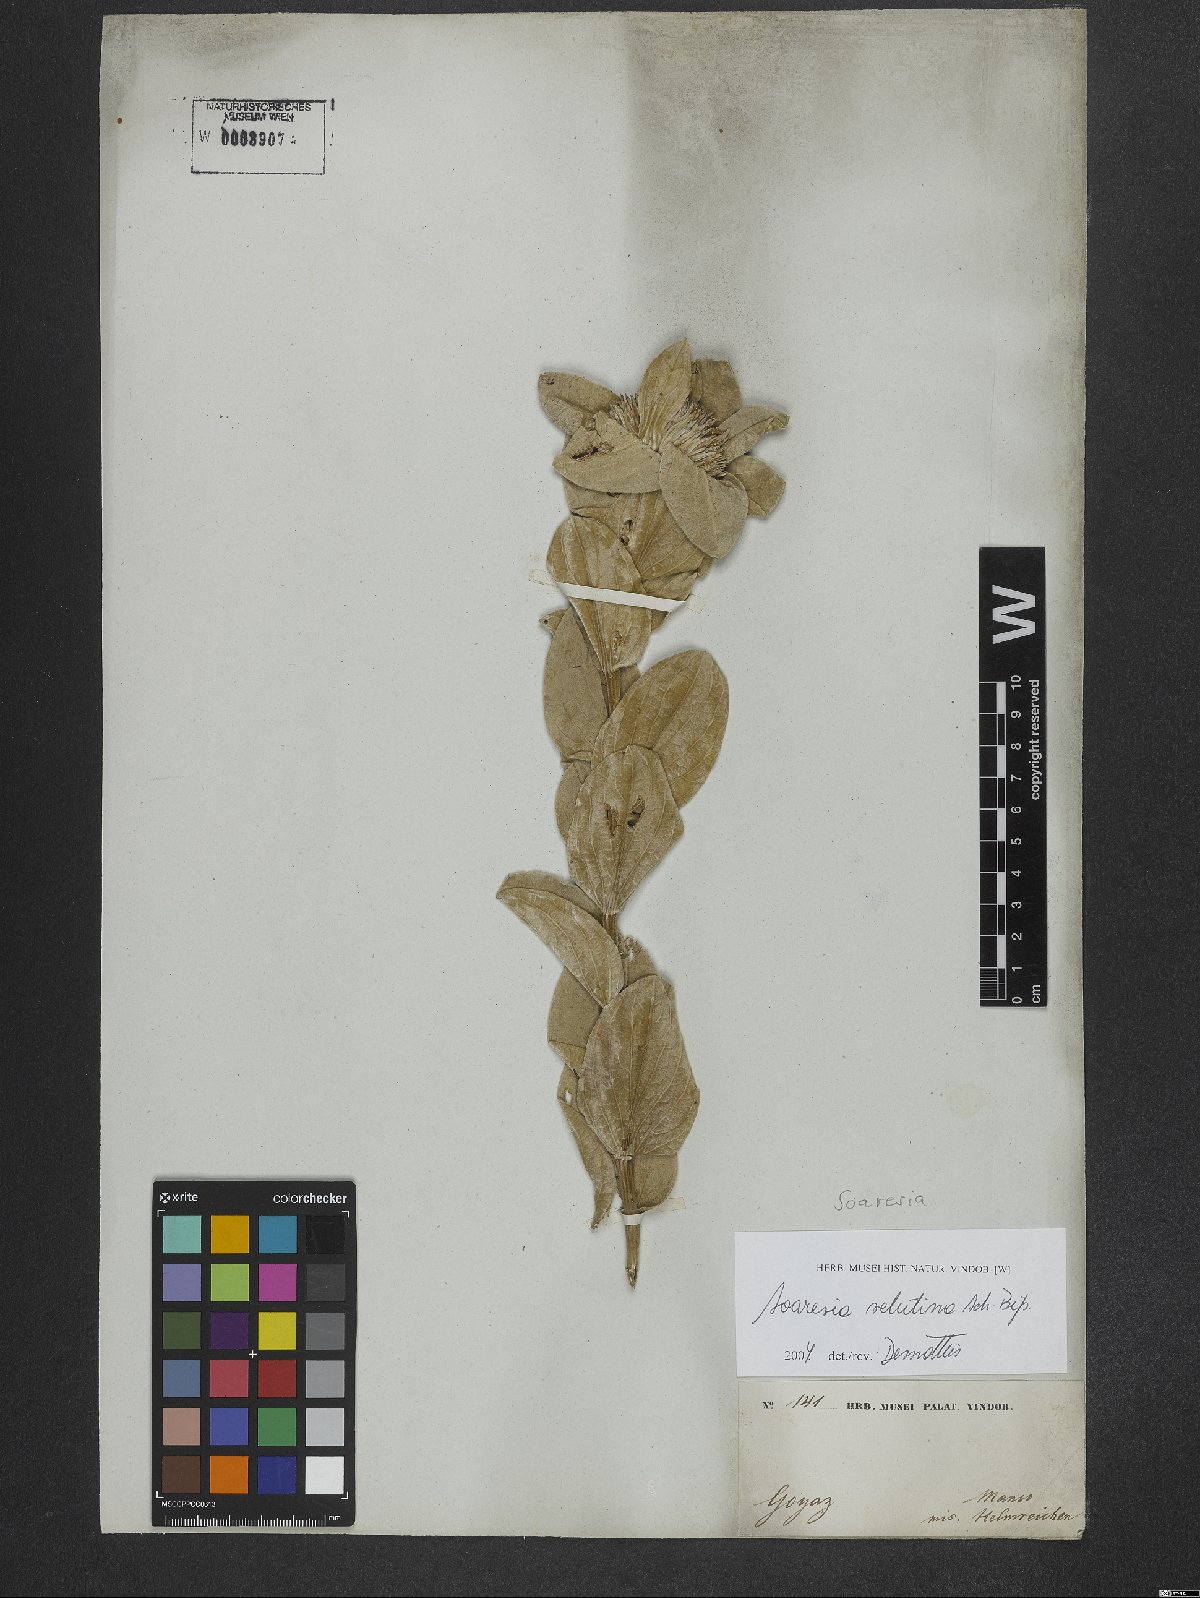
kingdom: Plantae
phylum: Tracheophyta
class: Magnoliopsida
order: Asterales
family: Asteraceae
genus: Soaresia
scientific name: Soaresia velutina
